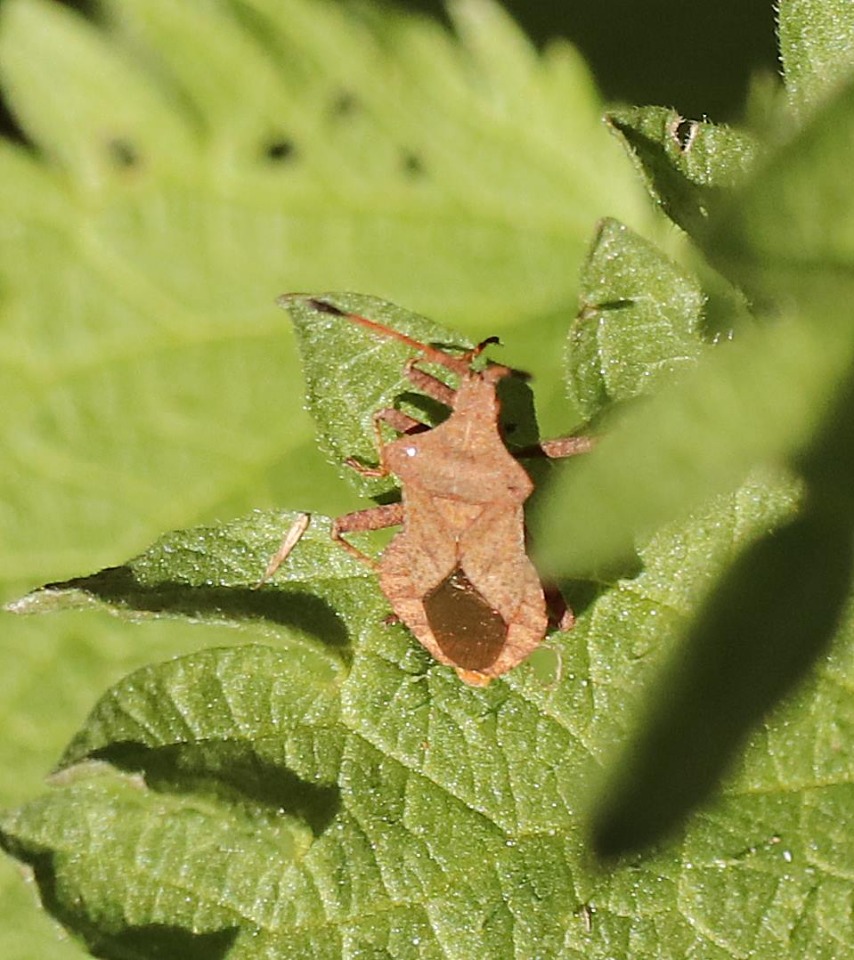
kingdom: Animalia
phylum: Arthropoda
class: Insecta
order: Hemiptera
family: Coreidae
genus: Coreus
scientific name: Coreus marginatus
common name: Skræppetæge
